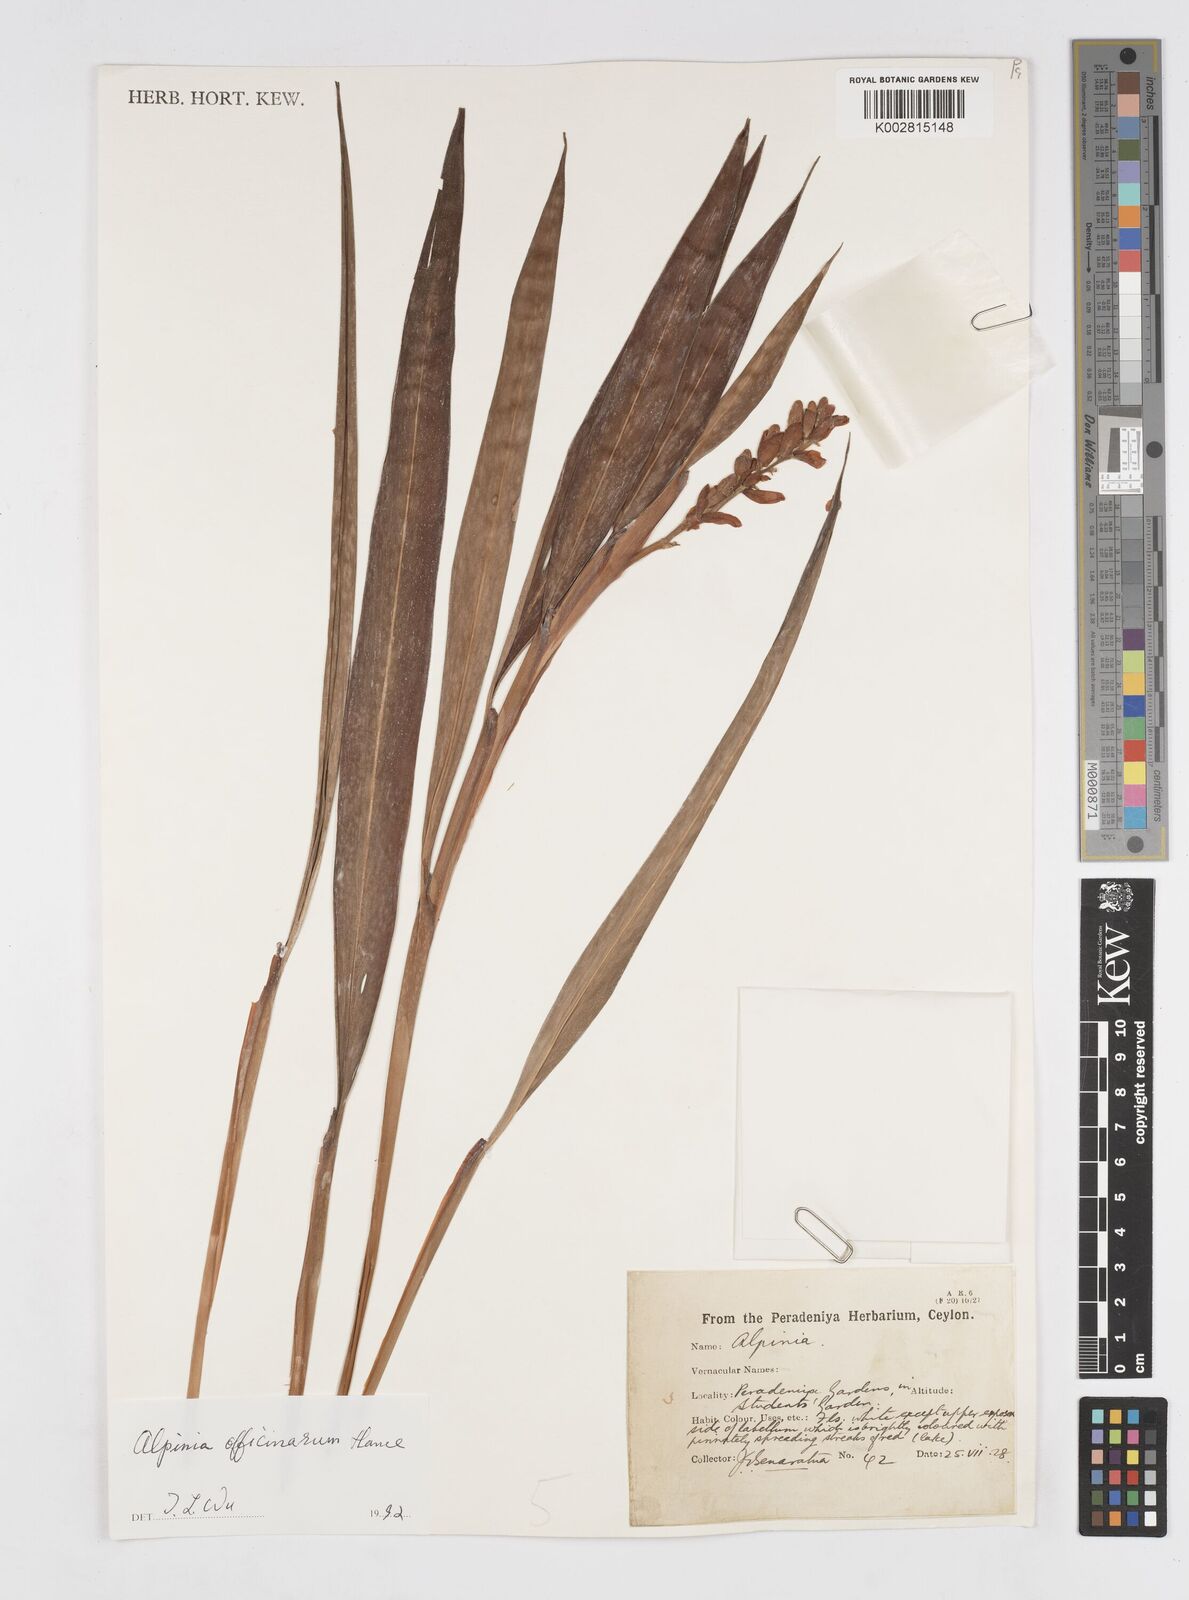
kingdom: Plantae
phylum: Tracheophyta
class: Liliopsida
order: Zingiberales
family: Zingiberaceae
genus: Alpinia
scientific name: Alpinia officinarum
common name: Chinese-ginger
